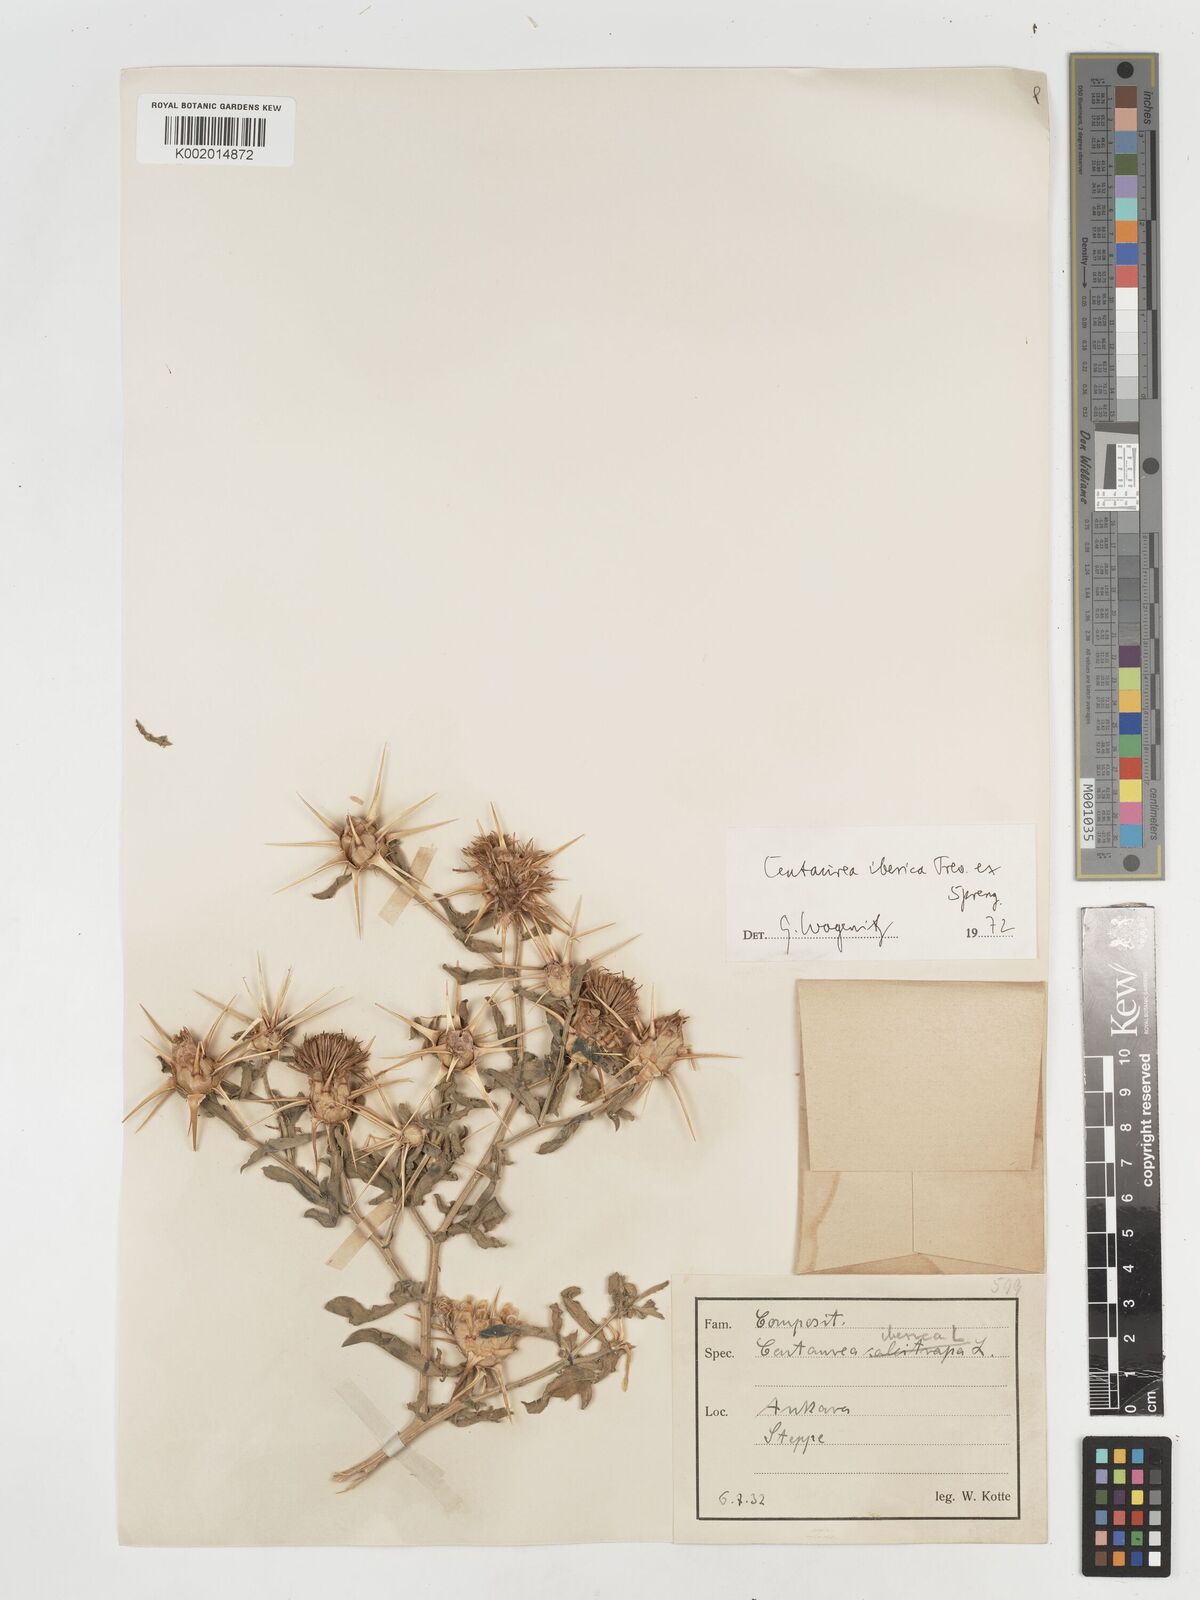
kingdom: Plantae
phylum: Tracheophyta
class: Magnoliopsida
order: Asterales
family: Asteraceae
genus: Centaurea
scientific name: Centaurea iberica
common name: Iberian knapweed
